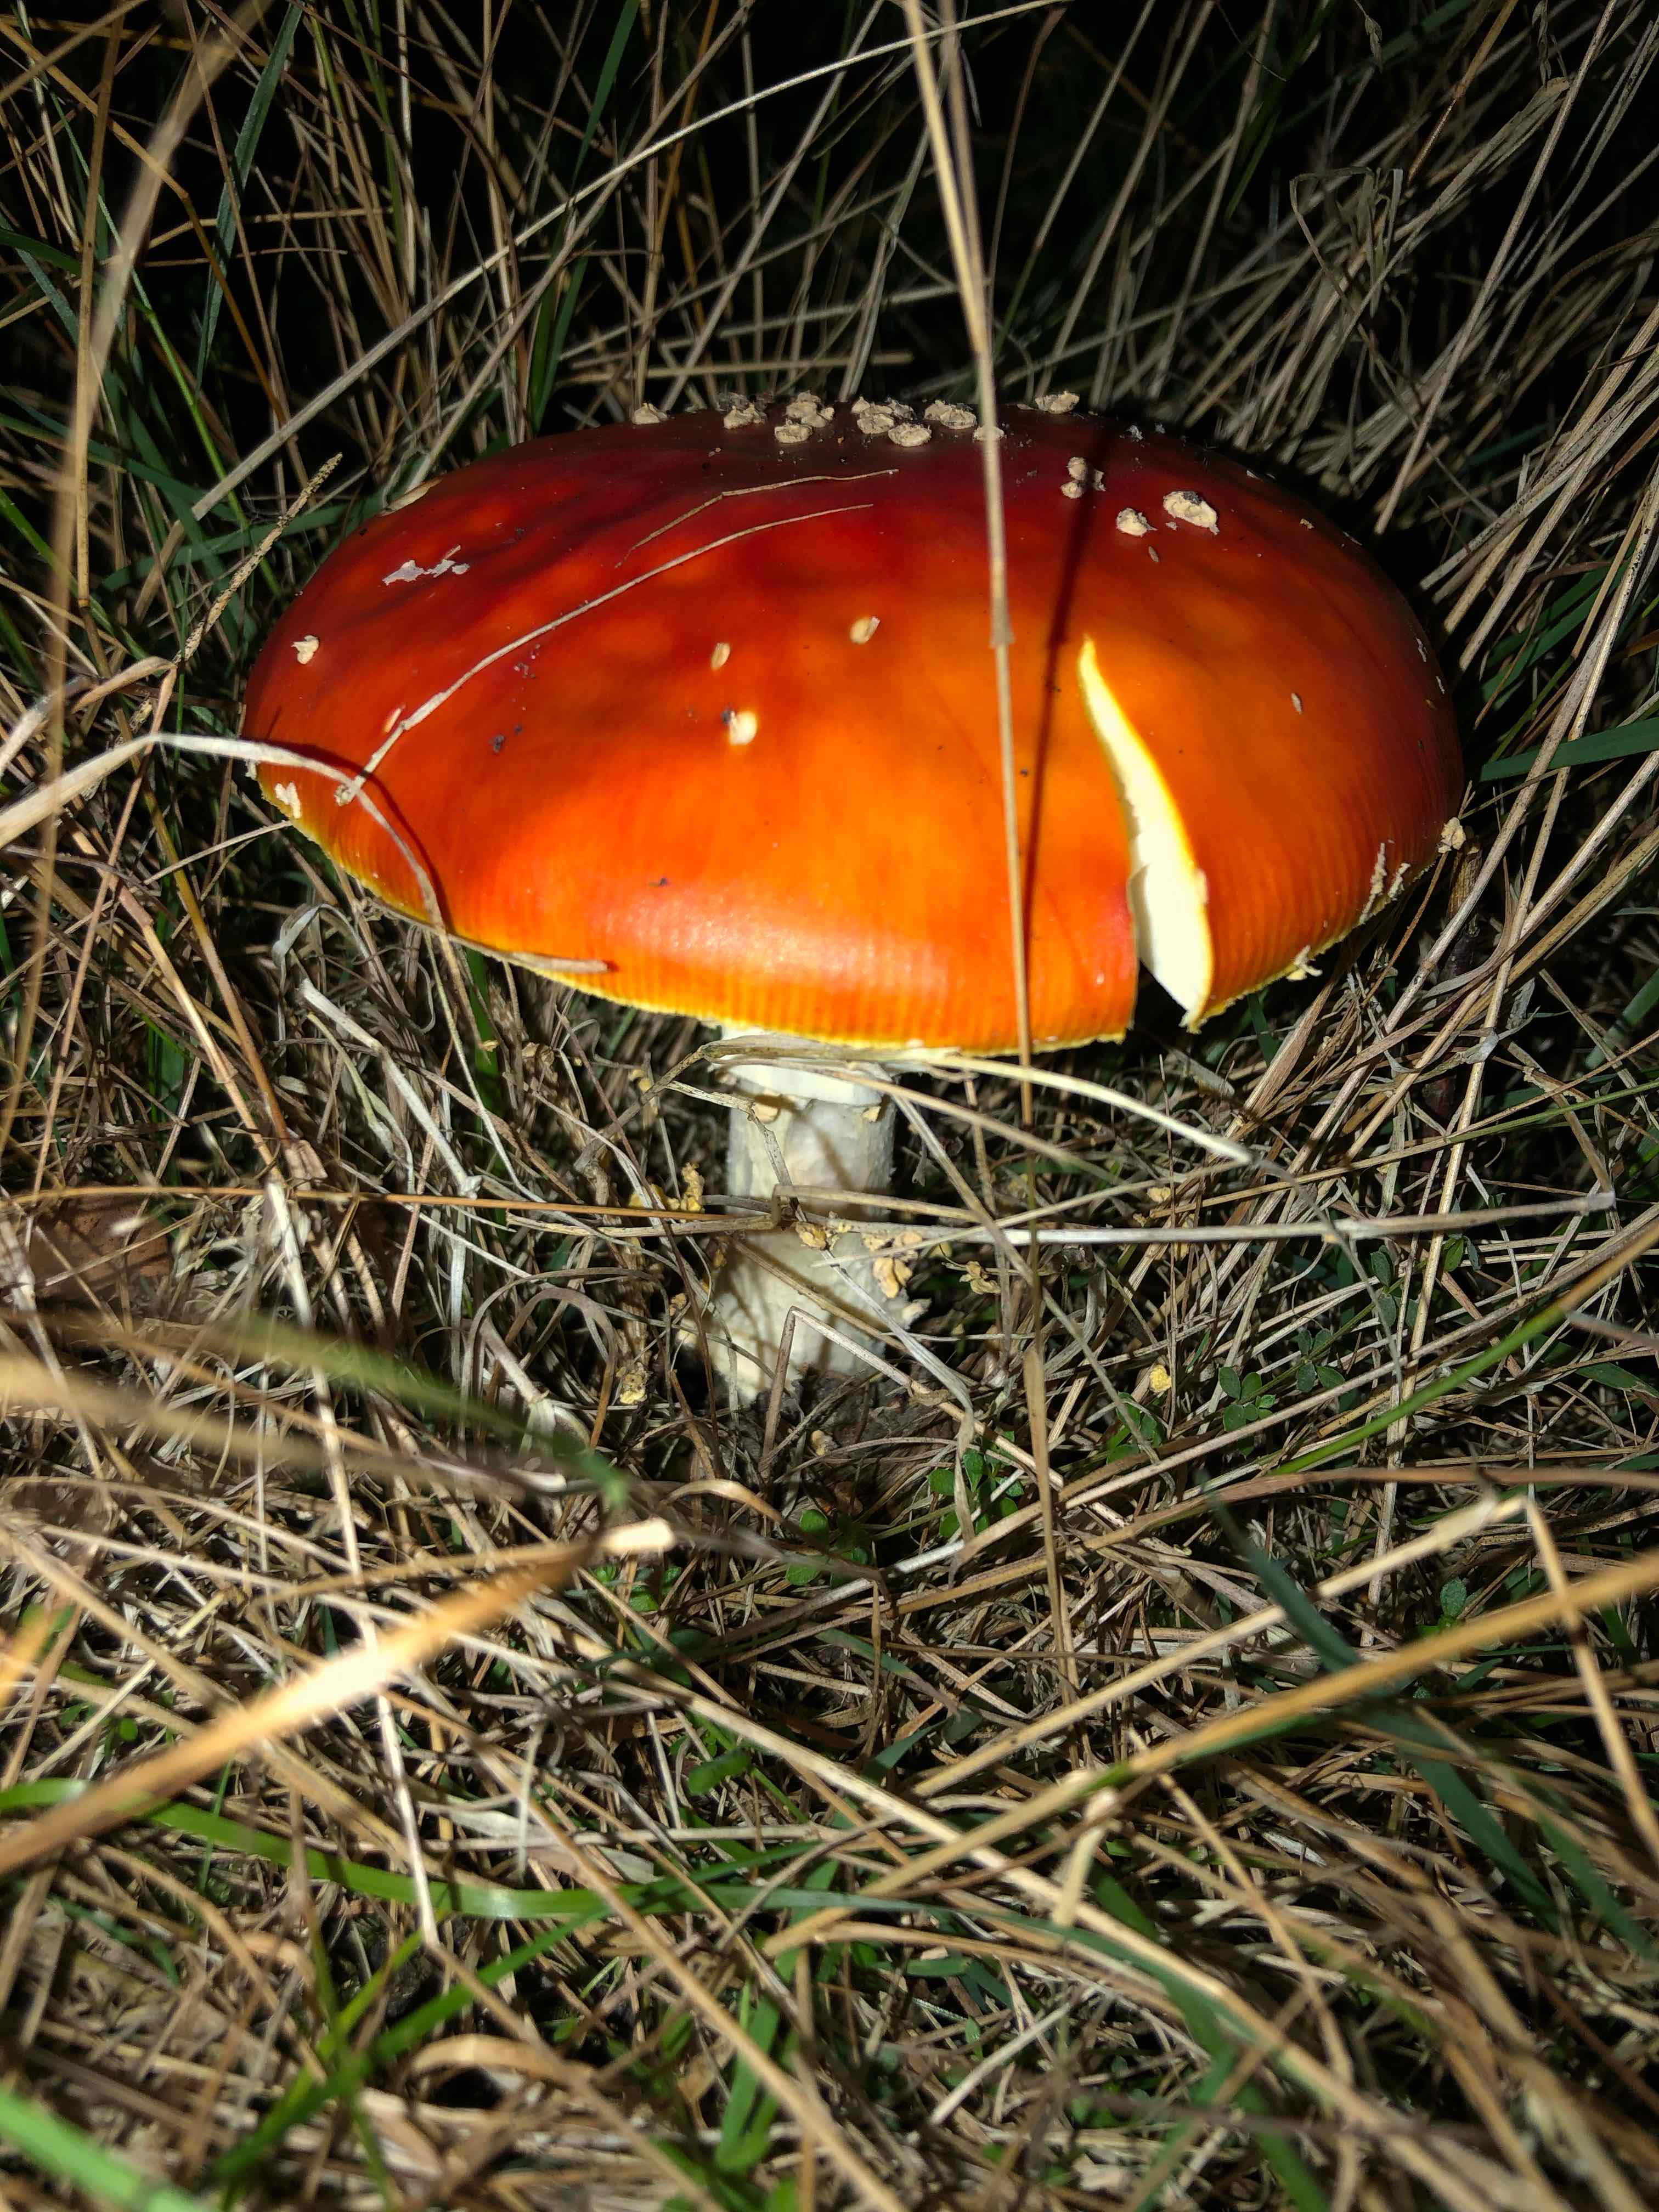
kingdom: Fungi
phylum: Basidiomycota
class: Agaricomycetes
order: Agaricales
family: Amanitaceae
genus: Amanita
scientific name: Amanita muscaria
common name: rød fluesvamp
